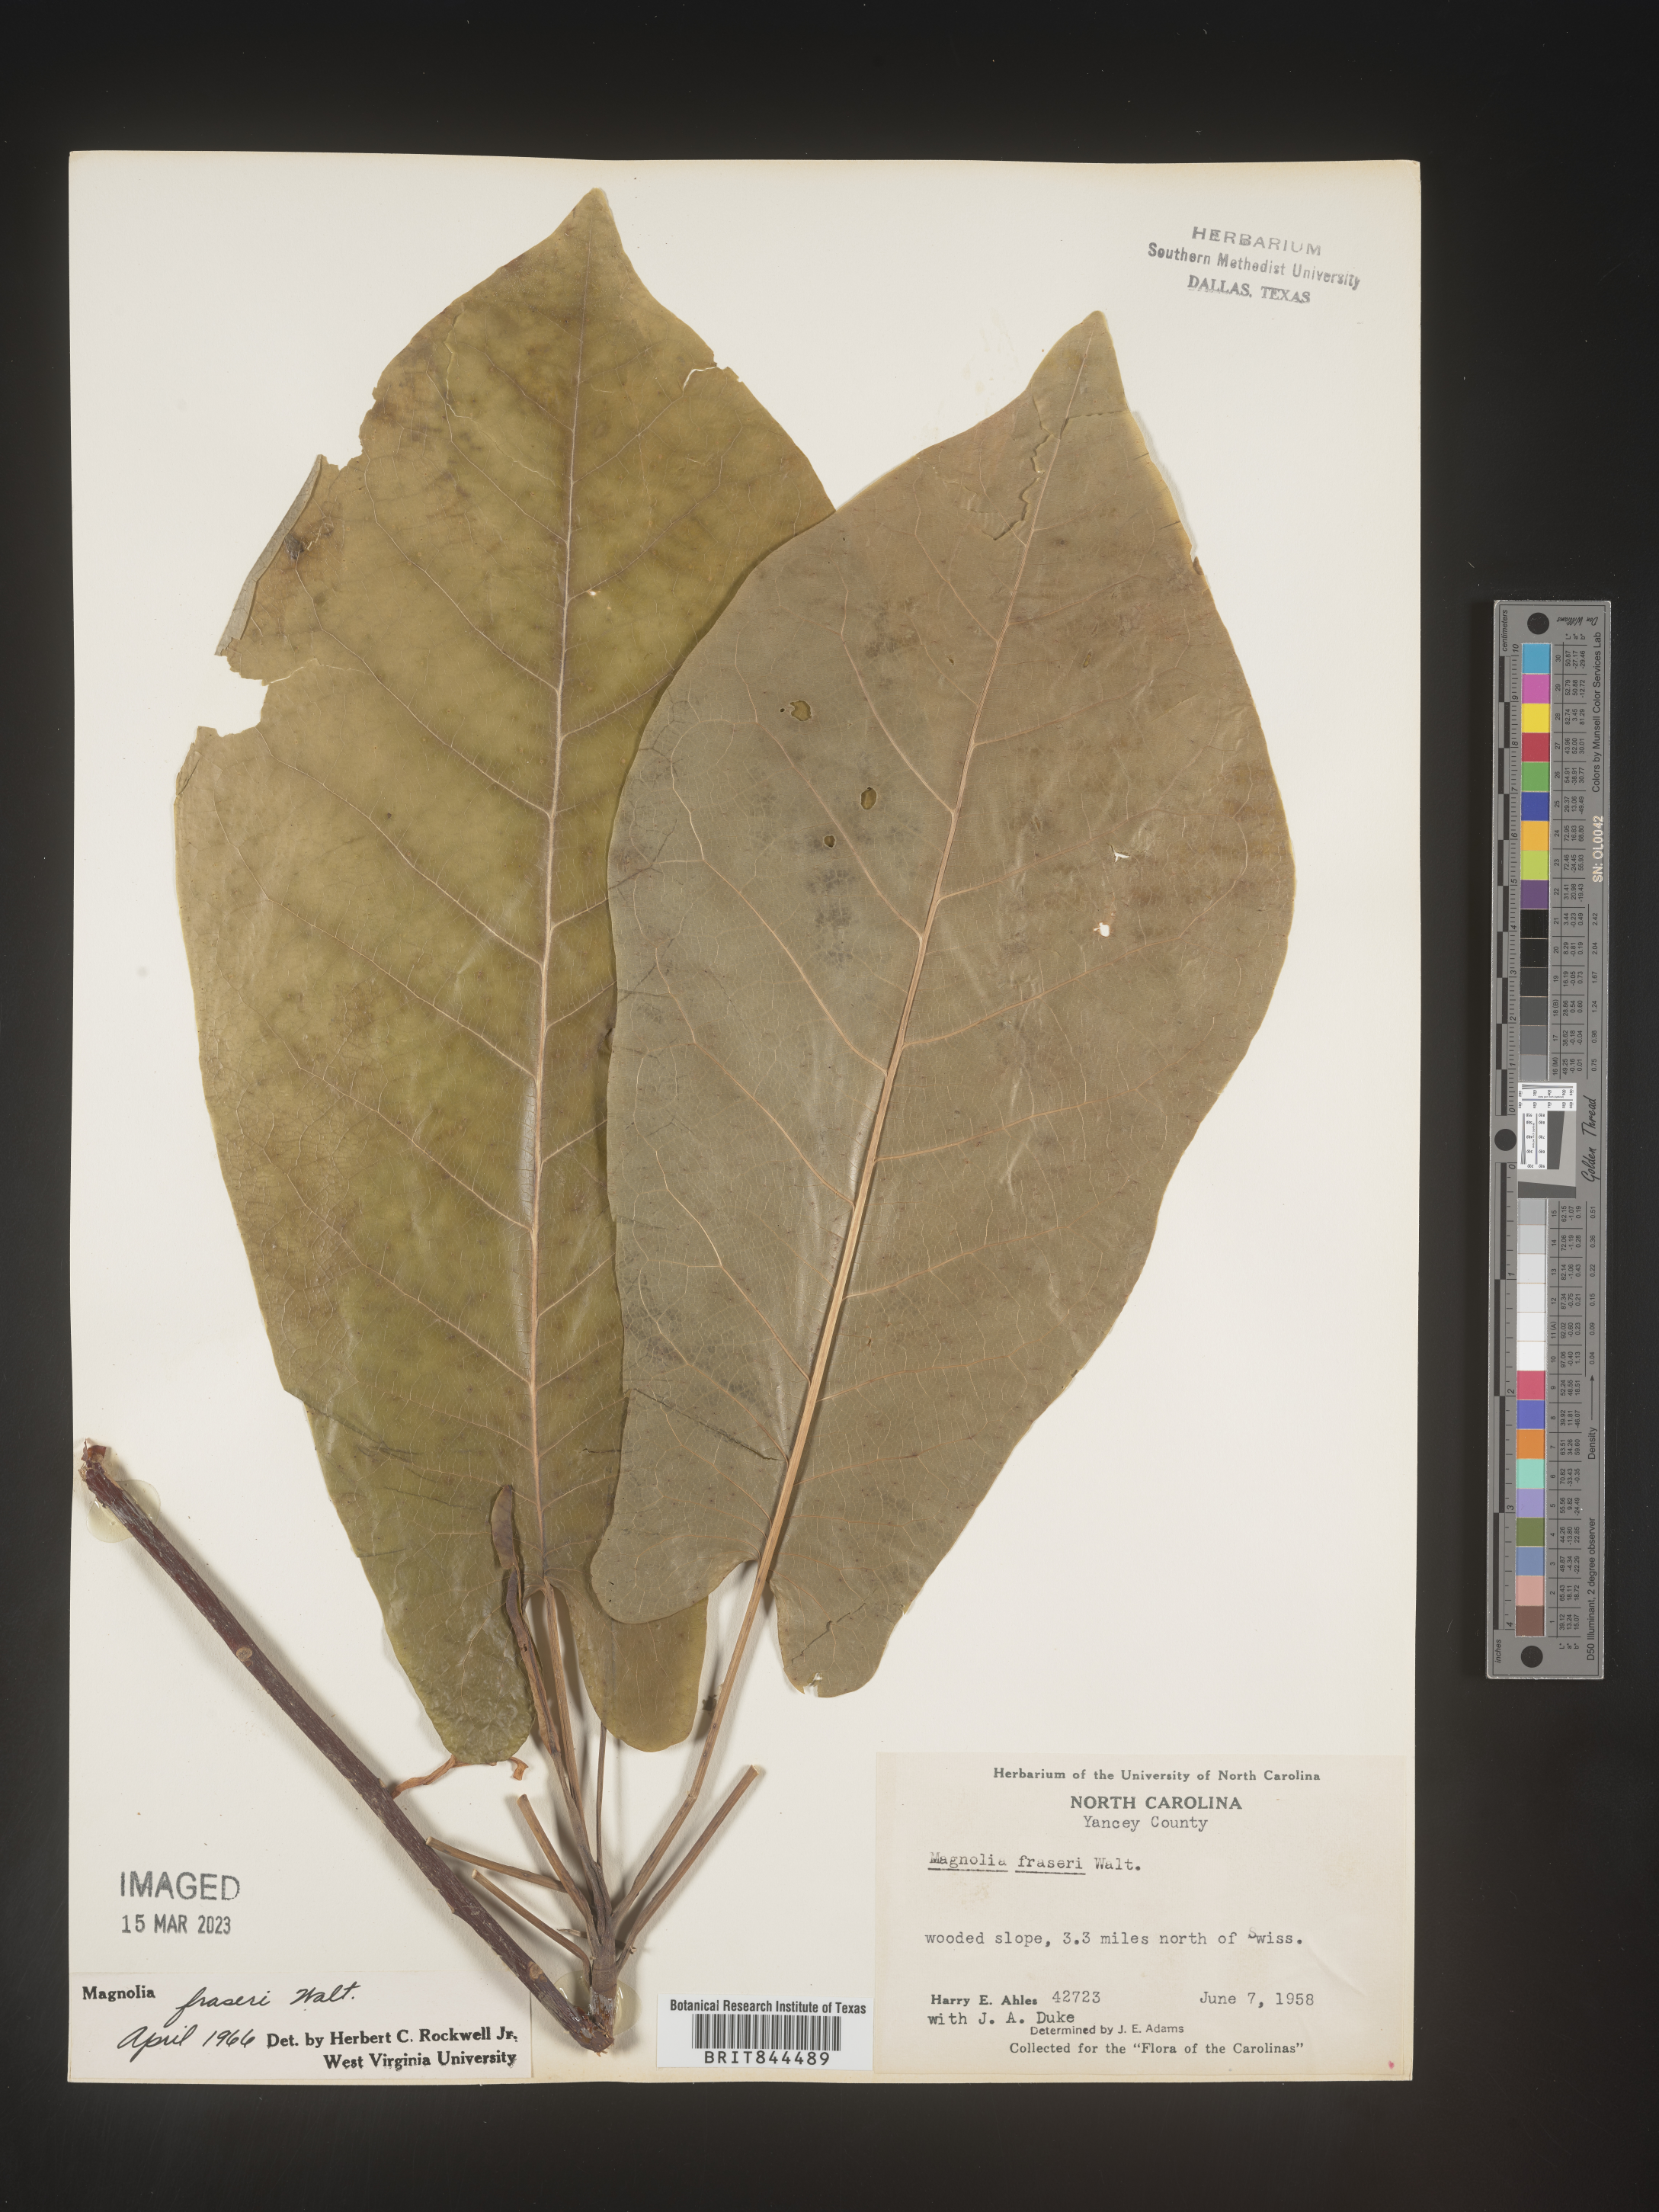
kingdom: Plantae
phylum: Tracheophyta
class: Magnoliopsida
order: Magnoliales
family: Magnoliaceae
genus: Magnolia
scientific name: Magnolia
